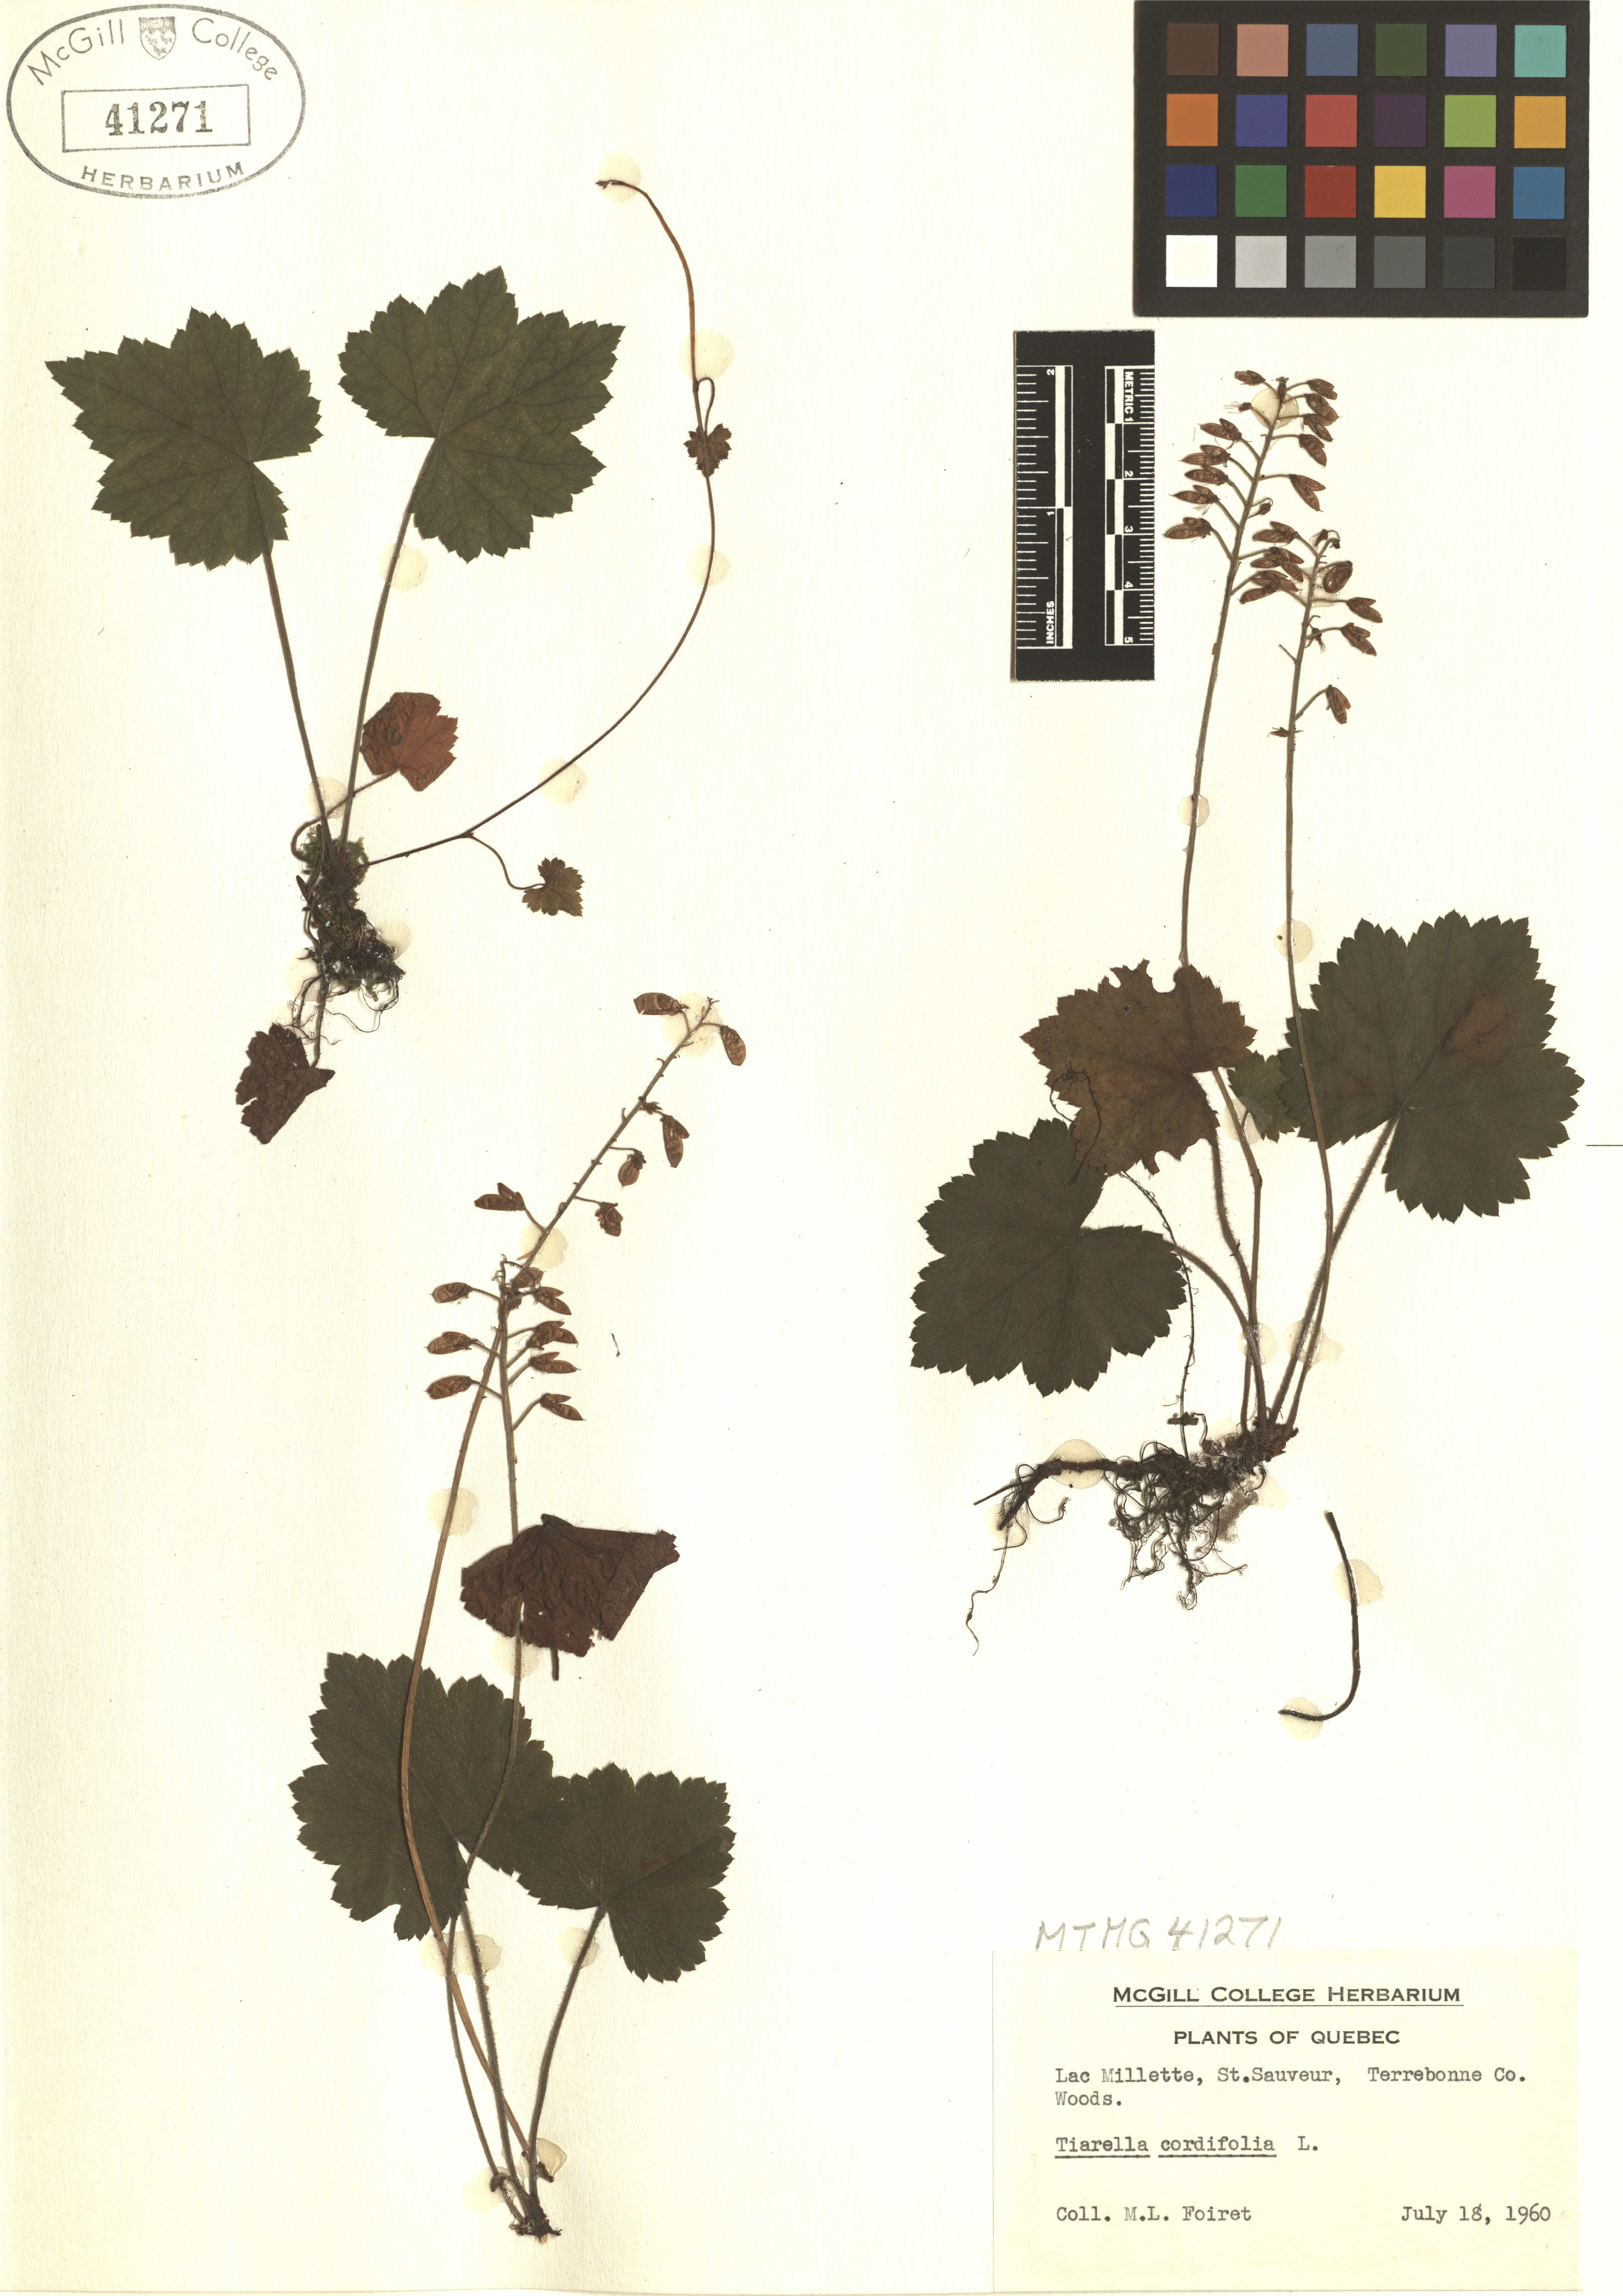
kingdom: Plantae
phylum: Tracheophyta
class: Magnoliopsida
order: Saxifragales
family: Saxifragaceae
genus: Tiarella
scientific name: Tiarella cordifolia
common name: Foamflower
